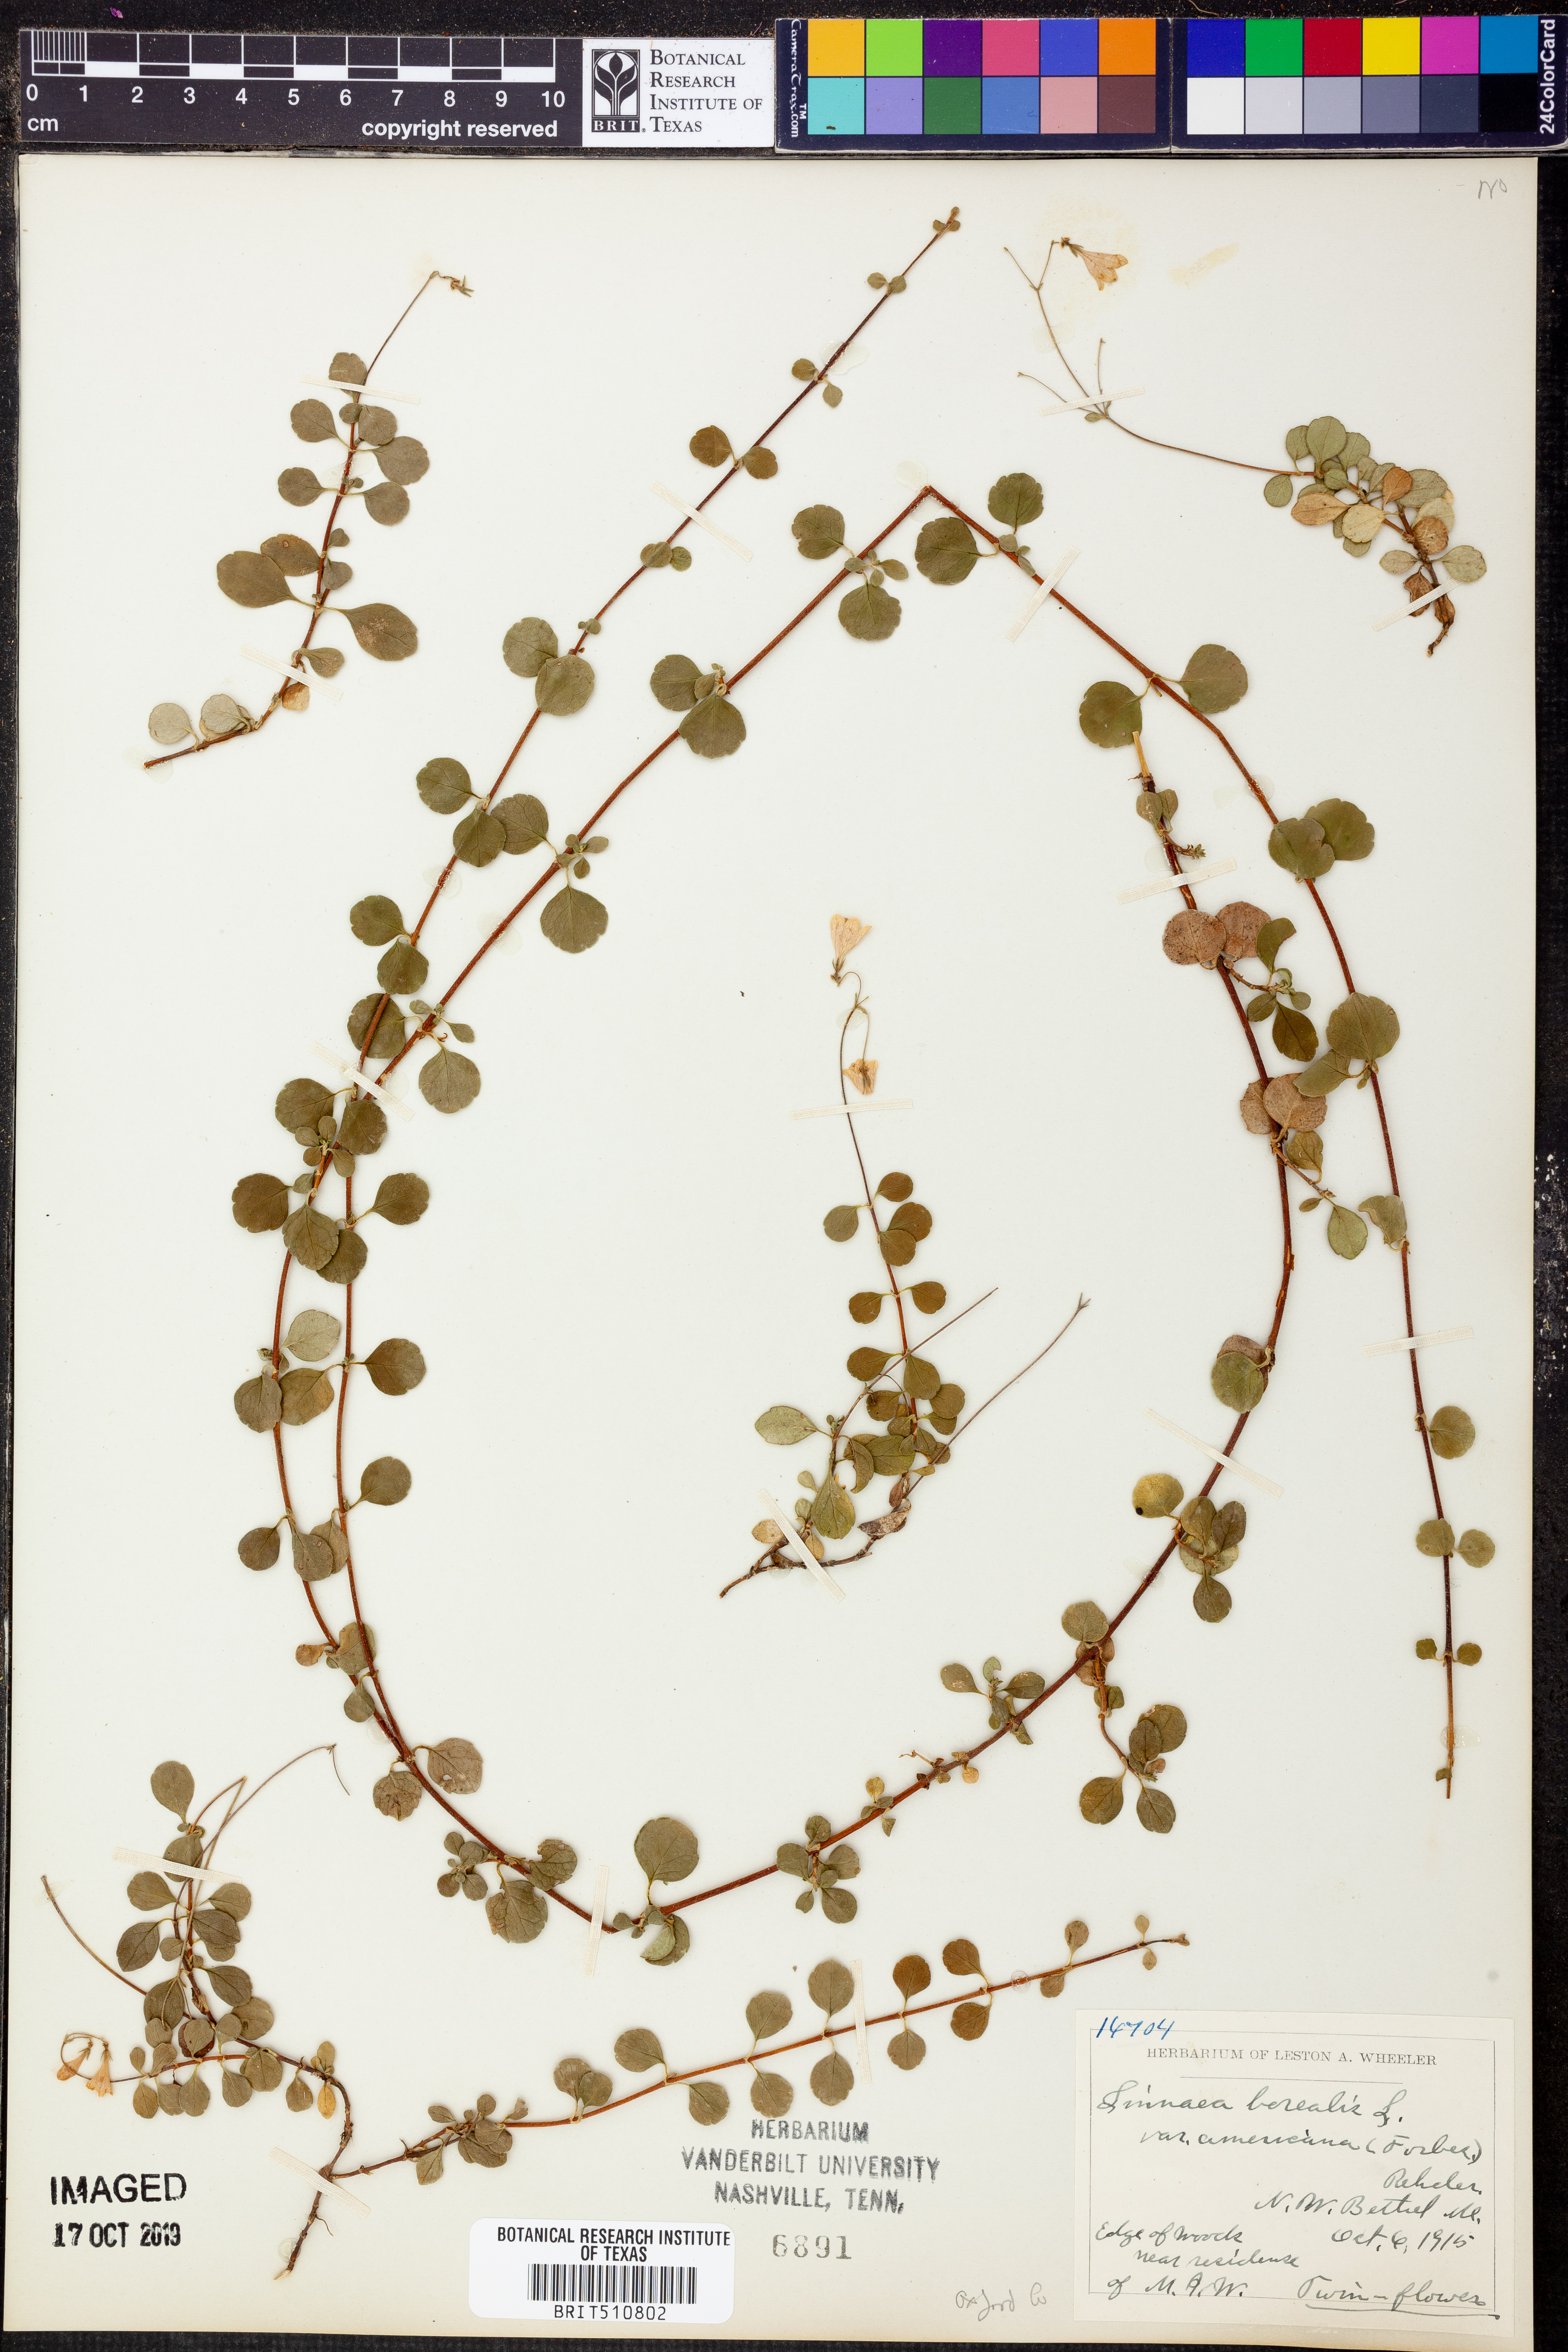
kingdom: Plantae
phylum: Tracheophyta
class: Magnoliopsida
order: Dipsacales
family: Caprifoliaceae
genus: Linnaea
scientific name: Linnaea borealis
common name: Twinflower
